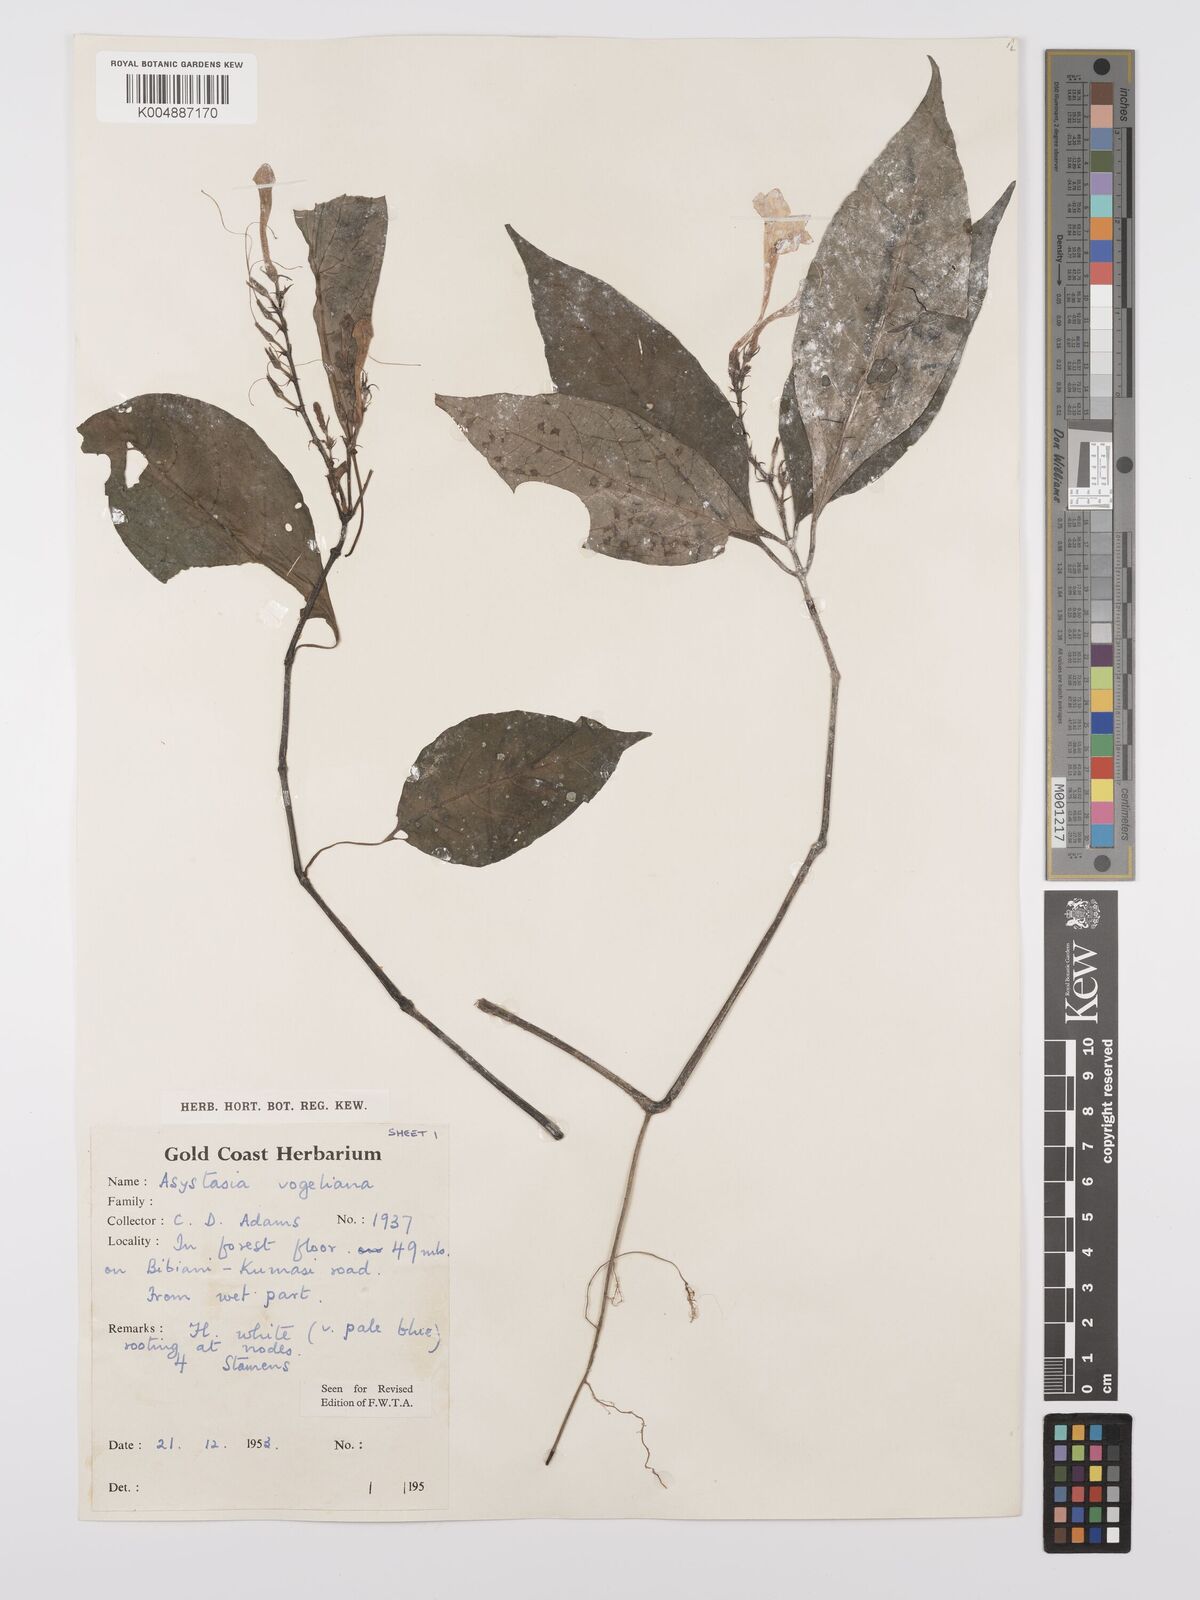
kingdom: Plantae
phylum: Tracheophyta
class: Magnoliopsida
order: Lamiales
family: Acanthaceae
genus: Asystasia
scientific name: Asystasia vogeliana
